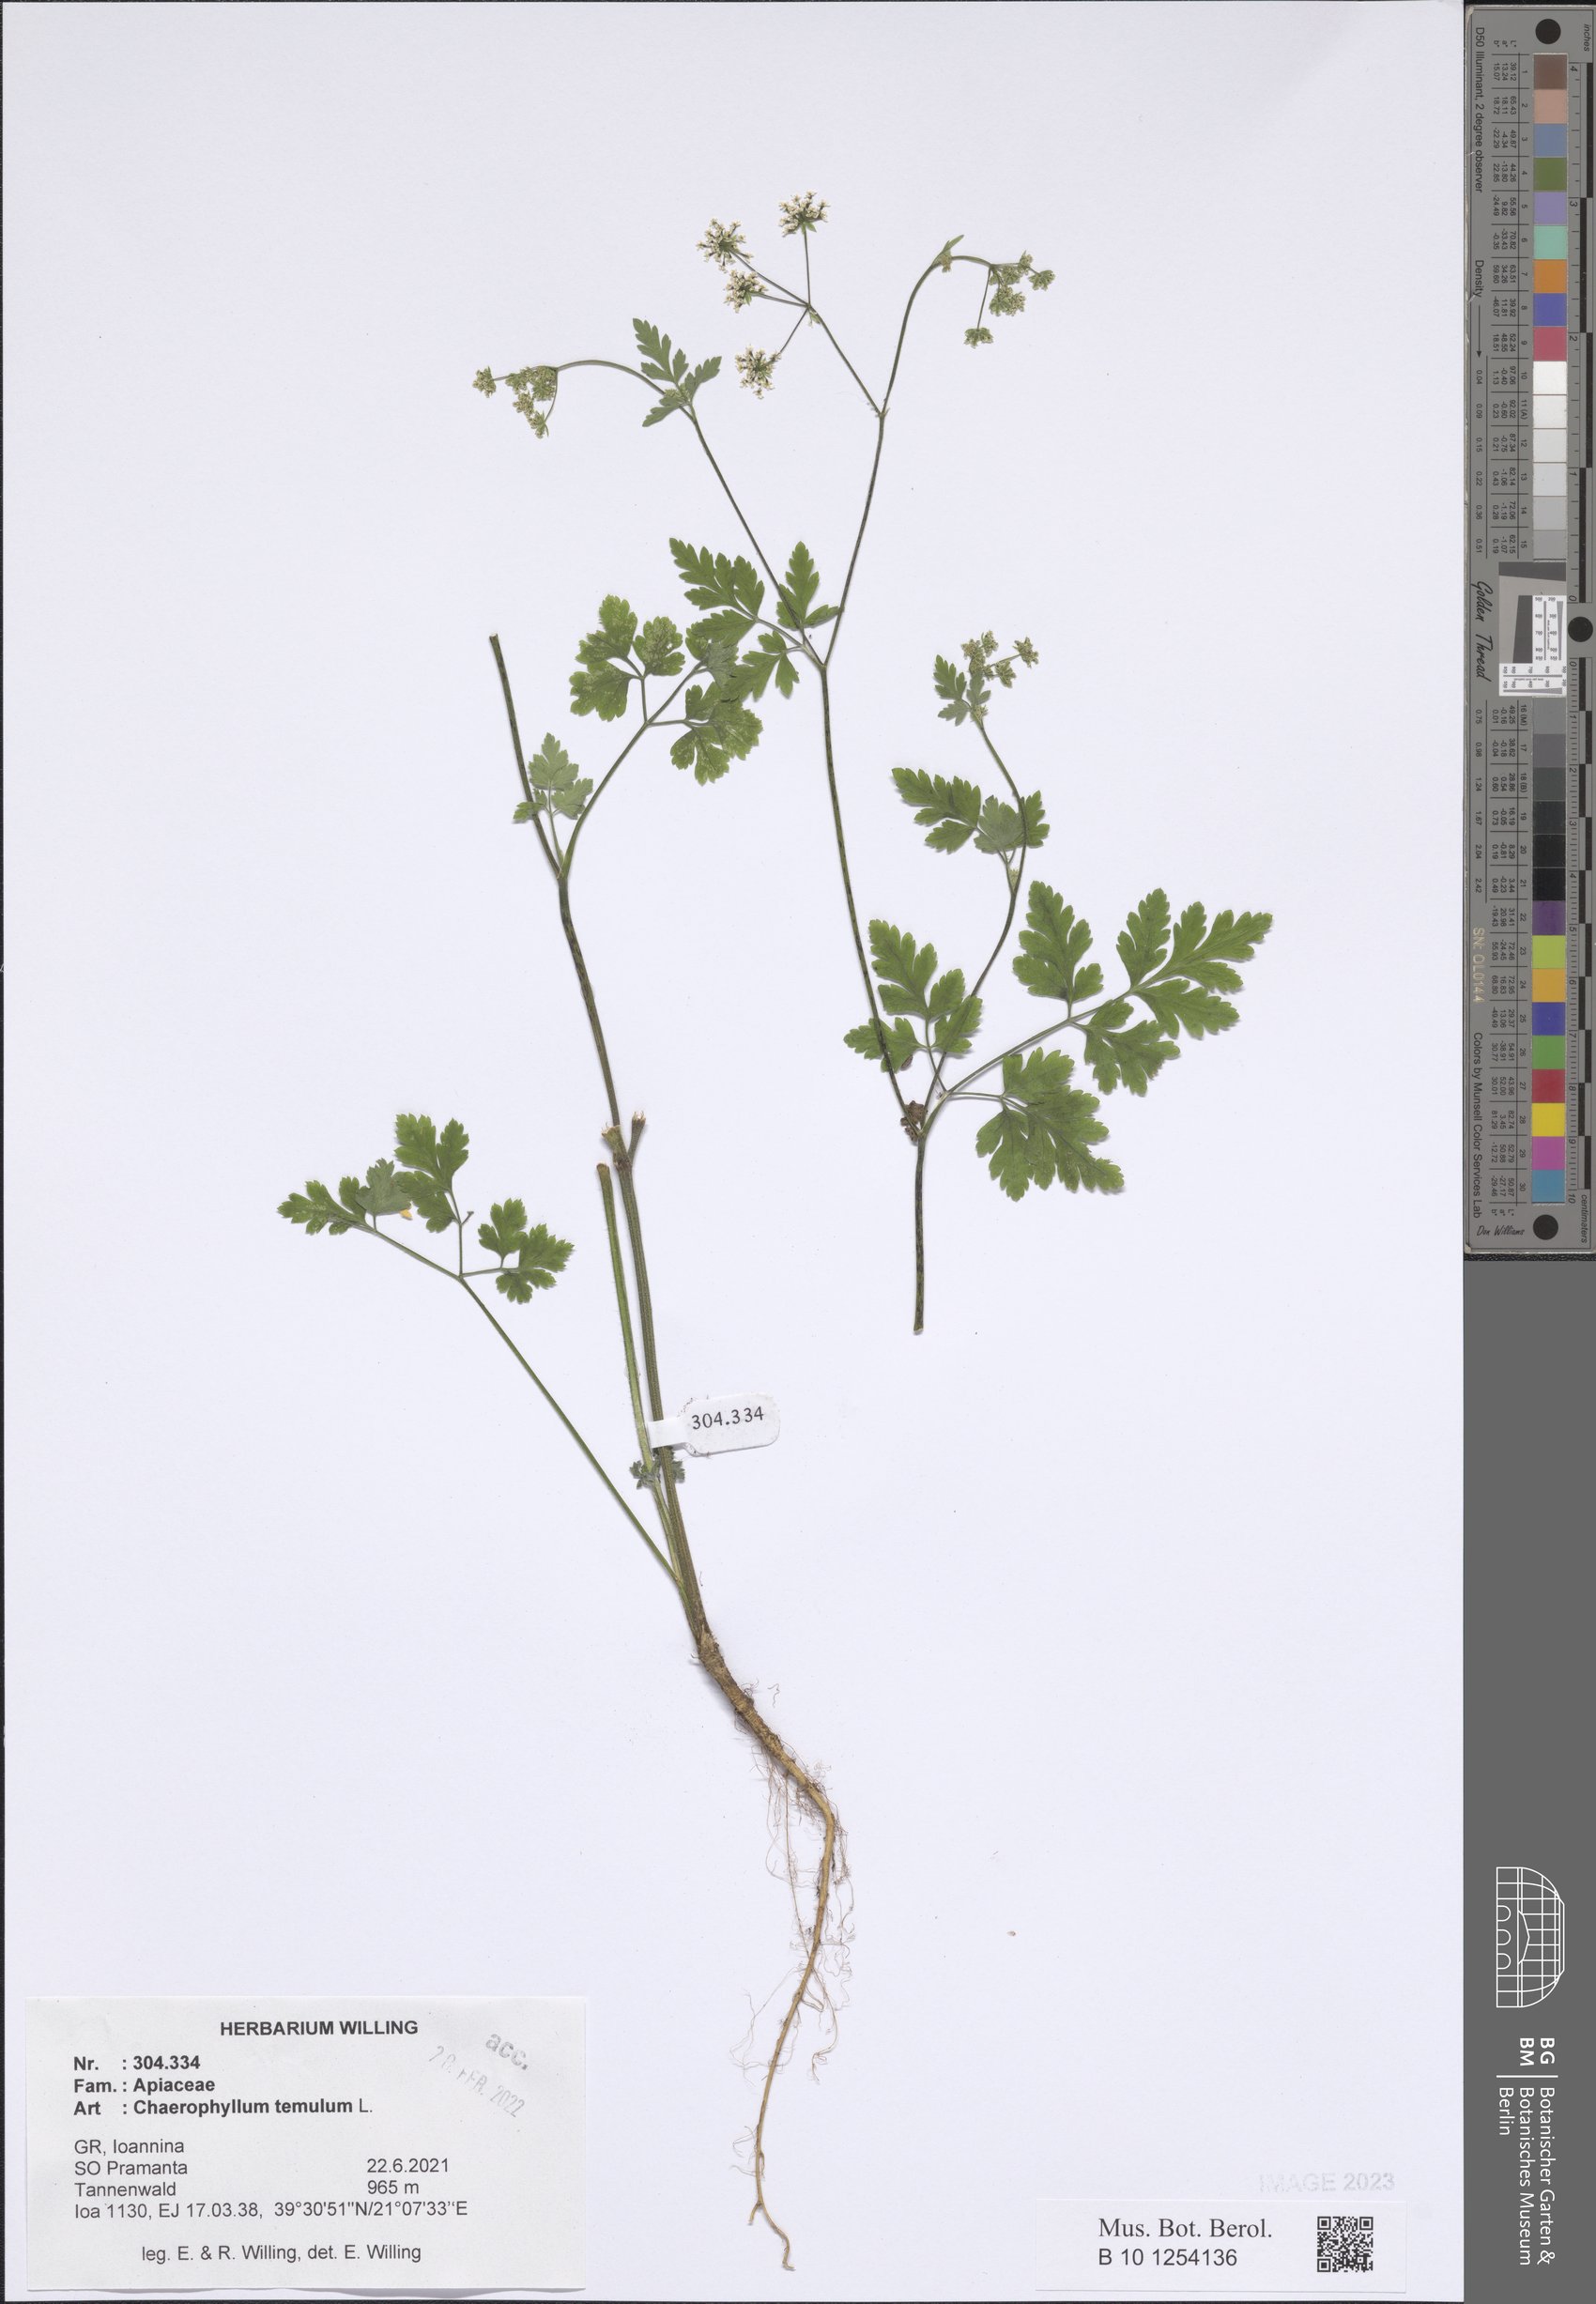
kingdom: Plantae
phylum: Tracheophyta
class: Magnoliopsida
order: Apiales
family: Apiaceae
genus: Chaerophyllum
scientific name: Chaerophyllum temulum
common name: Rough chervil
